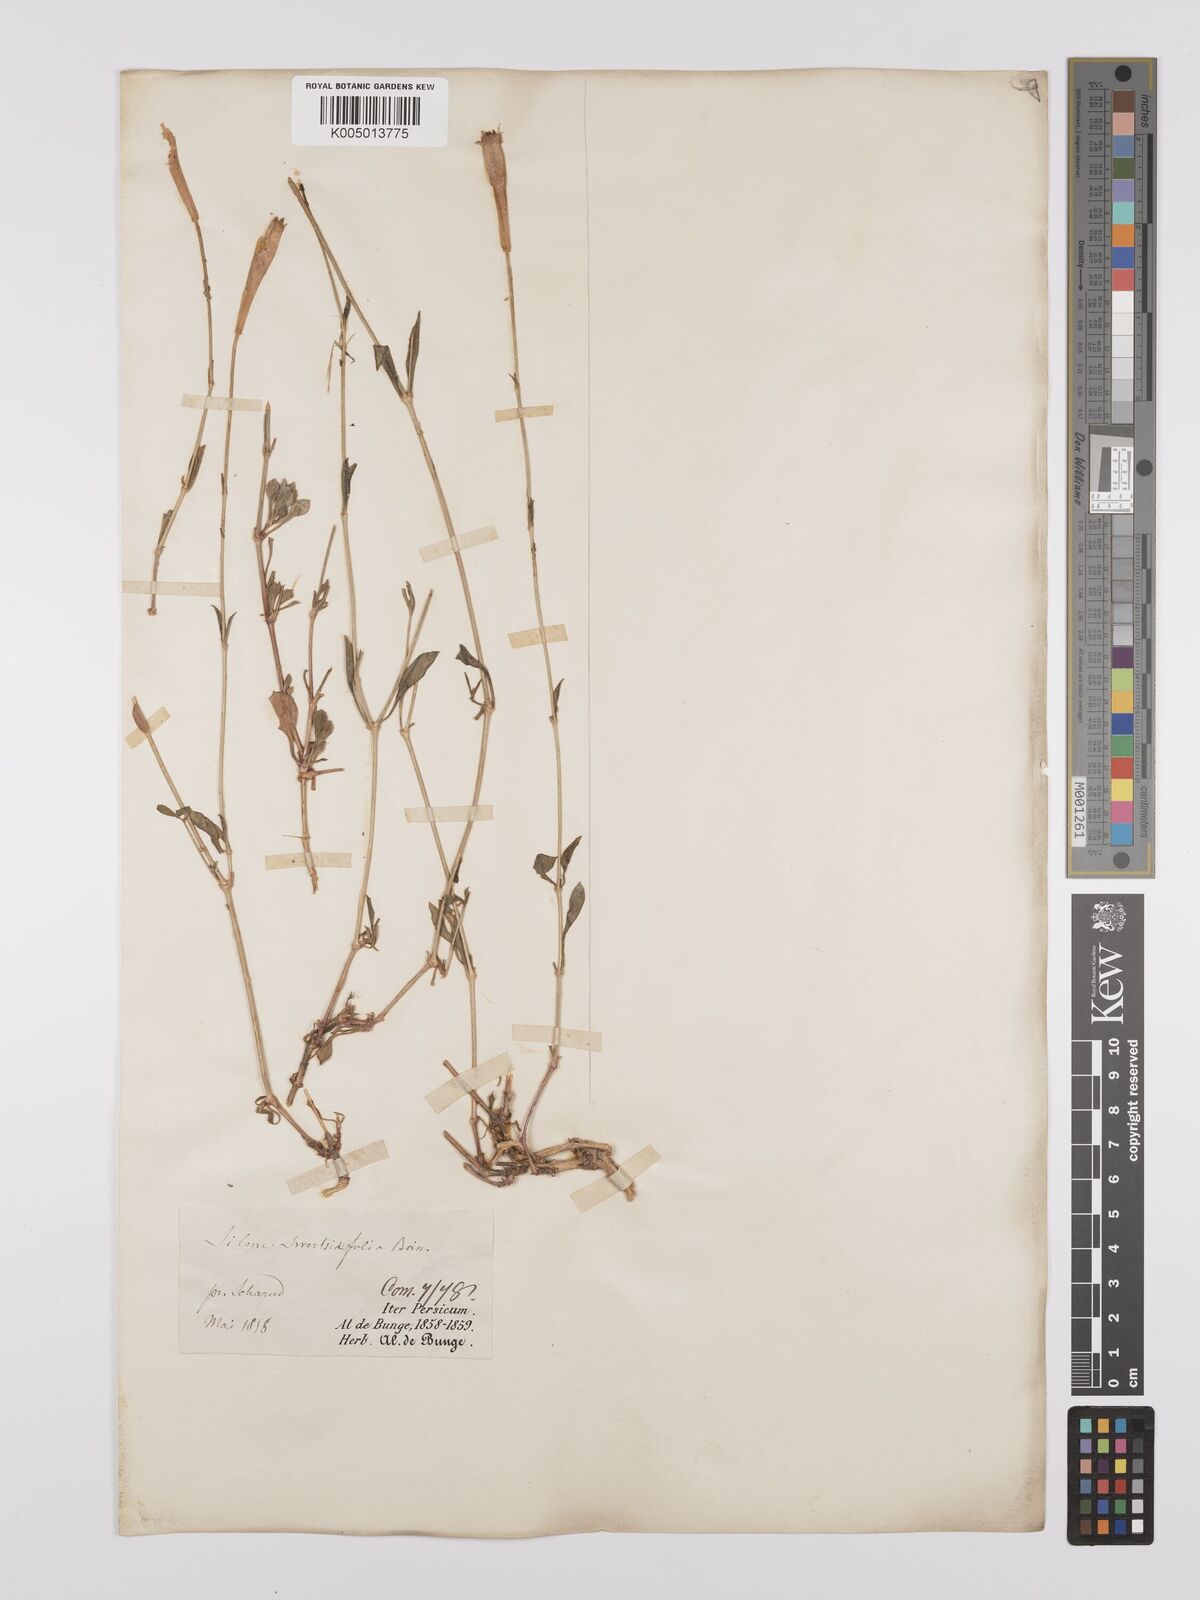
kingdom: Plantae
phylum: Tracheophyta
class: Magnoliopsida
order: Caryophyllales
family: Caryophyllaceae
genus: Silene
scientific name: Silene swertiifolia
